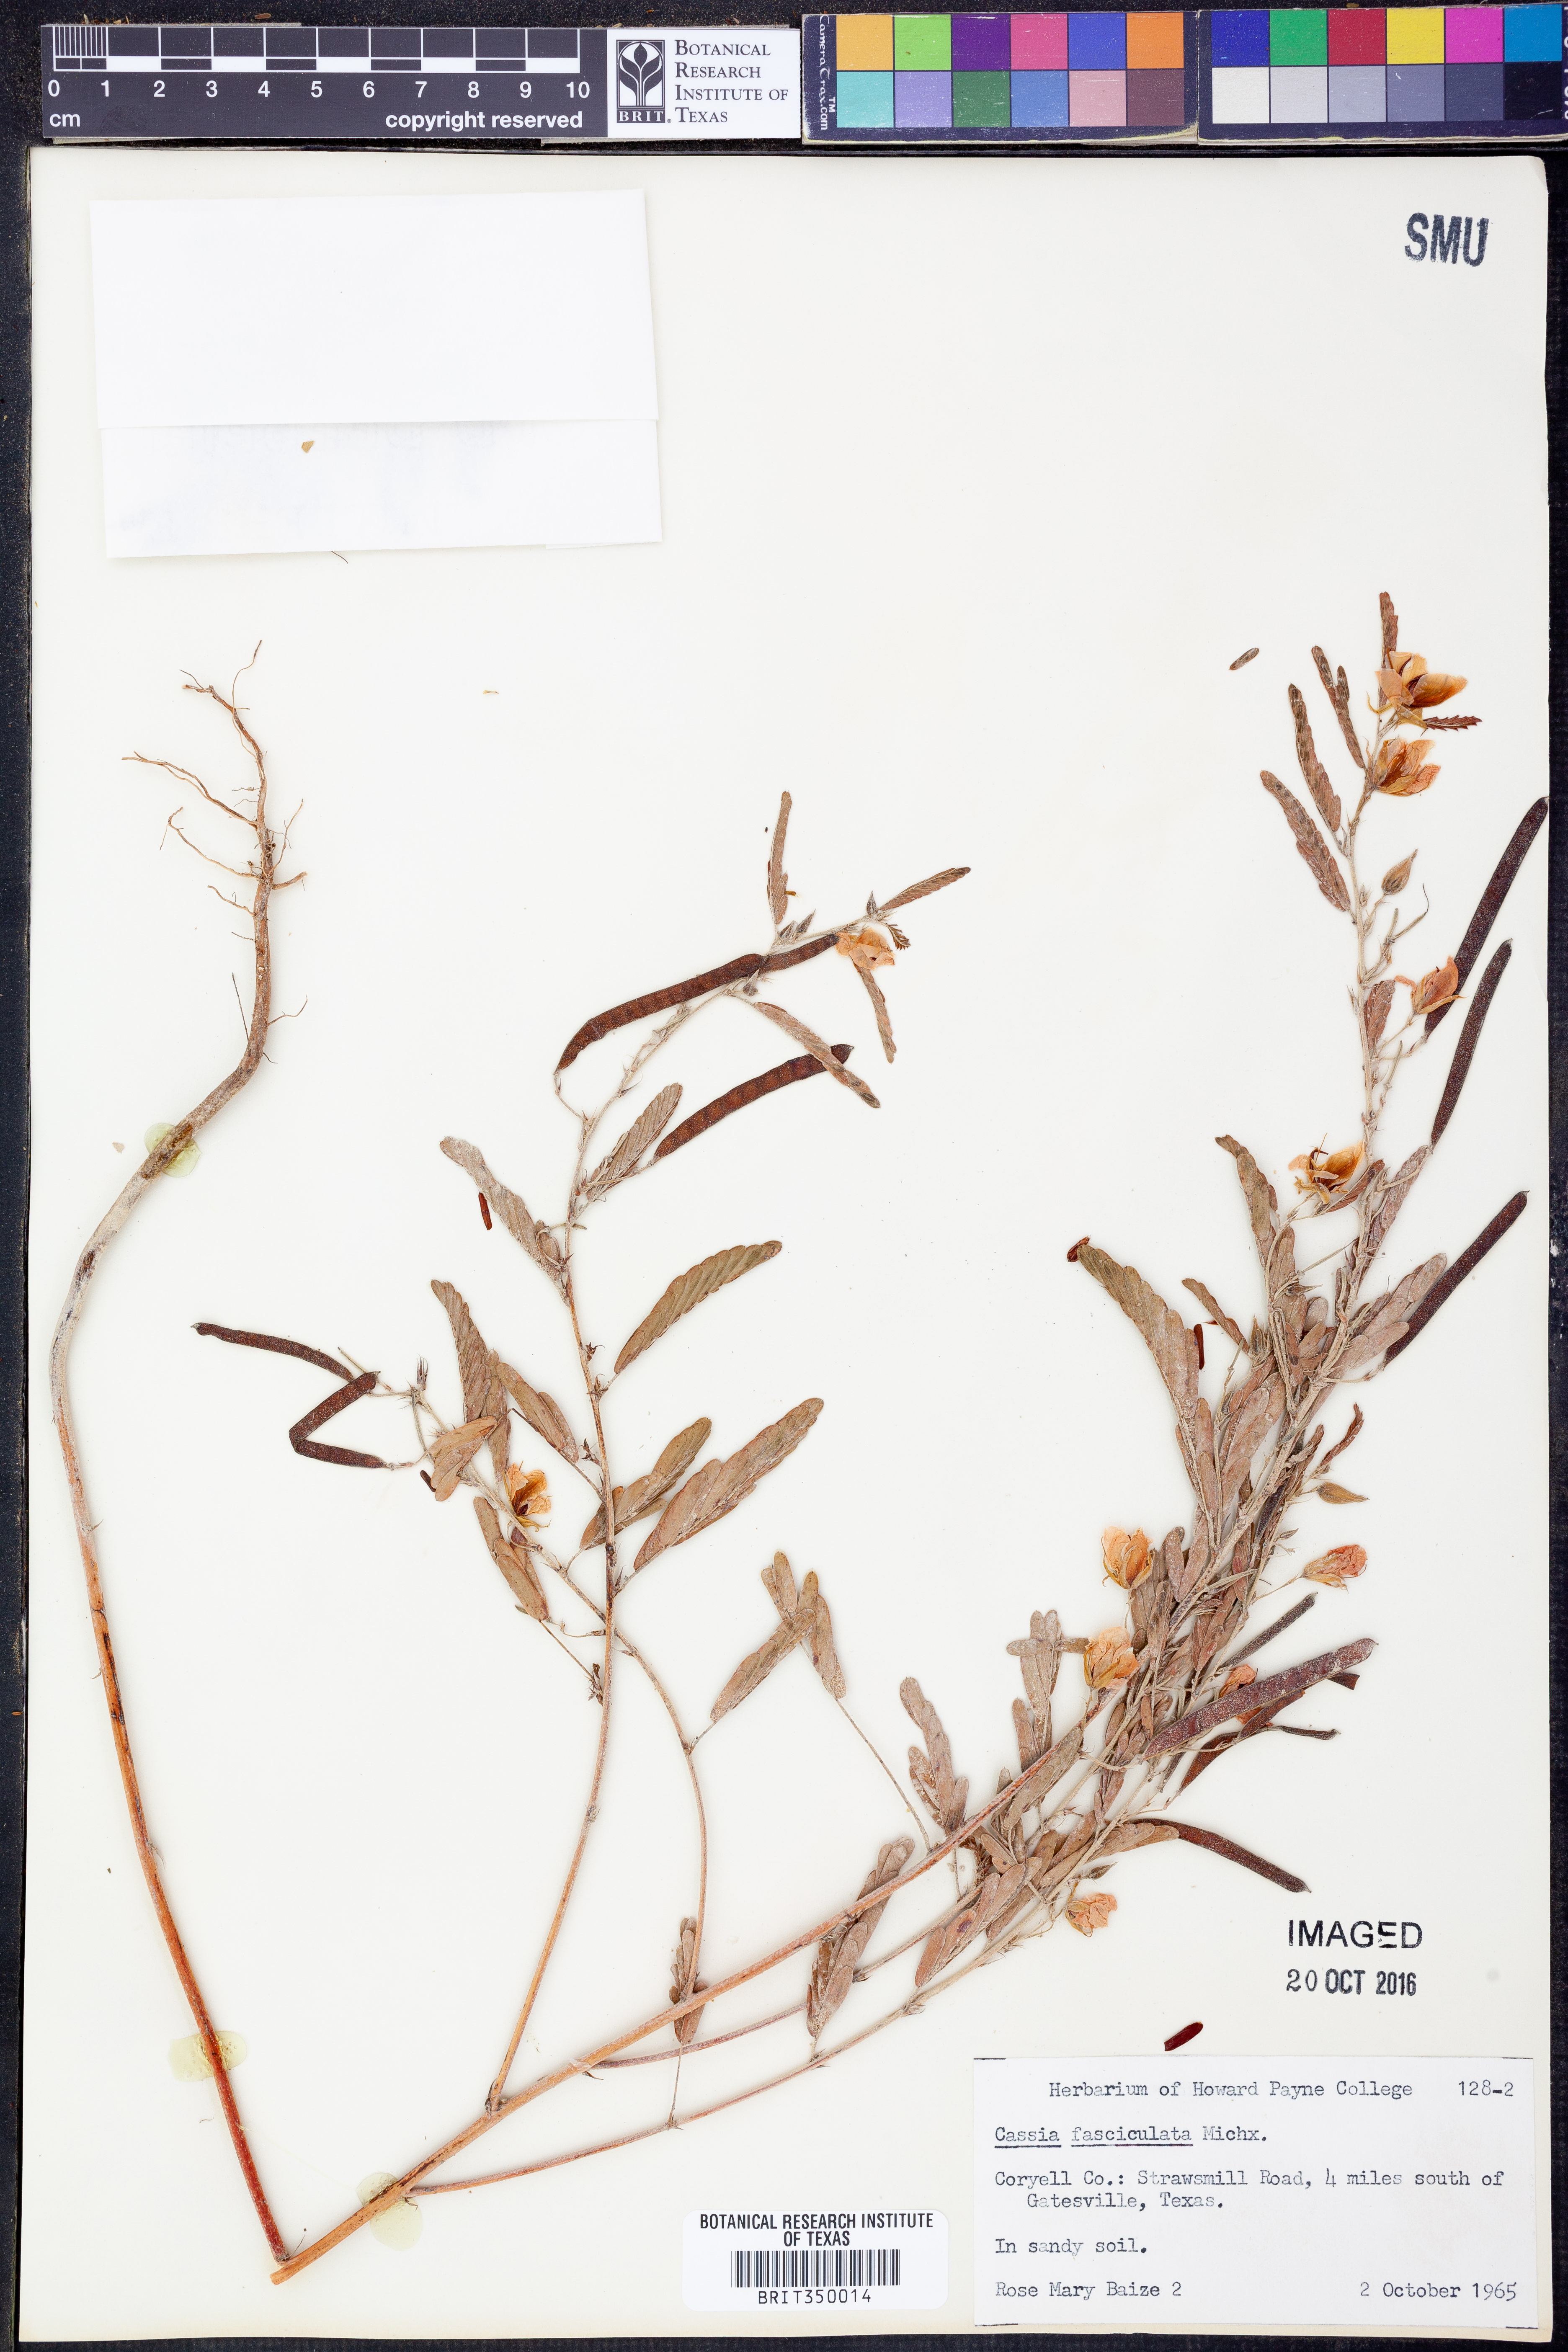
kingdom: Plantae
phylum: Tracheophyta
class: Magnoliopsida
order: Fabales
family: Fabaceae
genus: Chamaecrista
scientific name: Chamaecrista fasciculata
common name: Golden cassia
